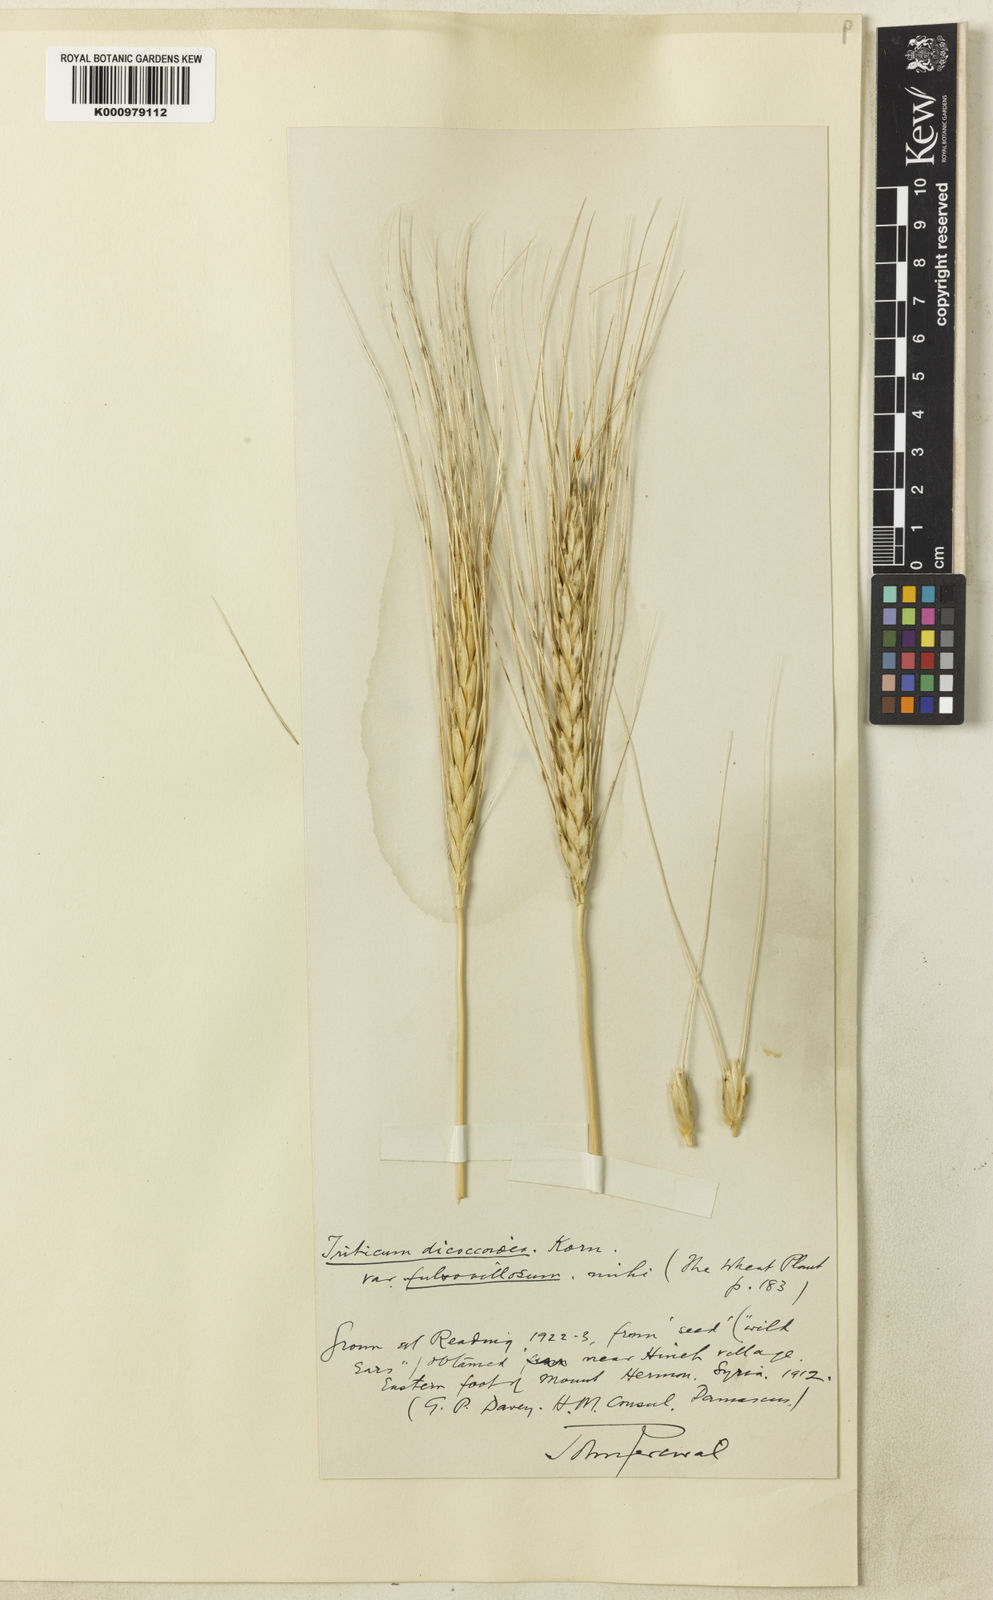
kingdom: Plantae
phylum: Tracheophyta
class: Liliopsida
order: Poales
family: Poaceae
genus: Triticum
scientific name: Triticum turgidum
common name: Rivet wheat
